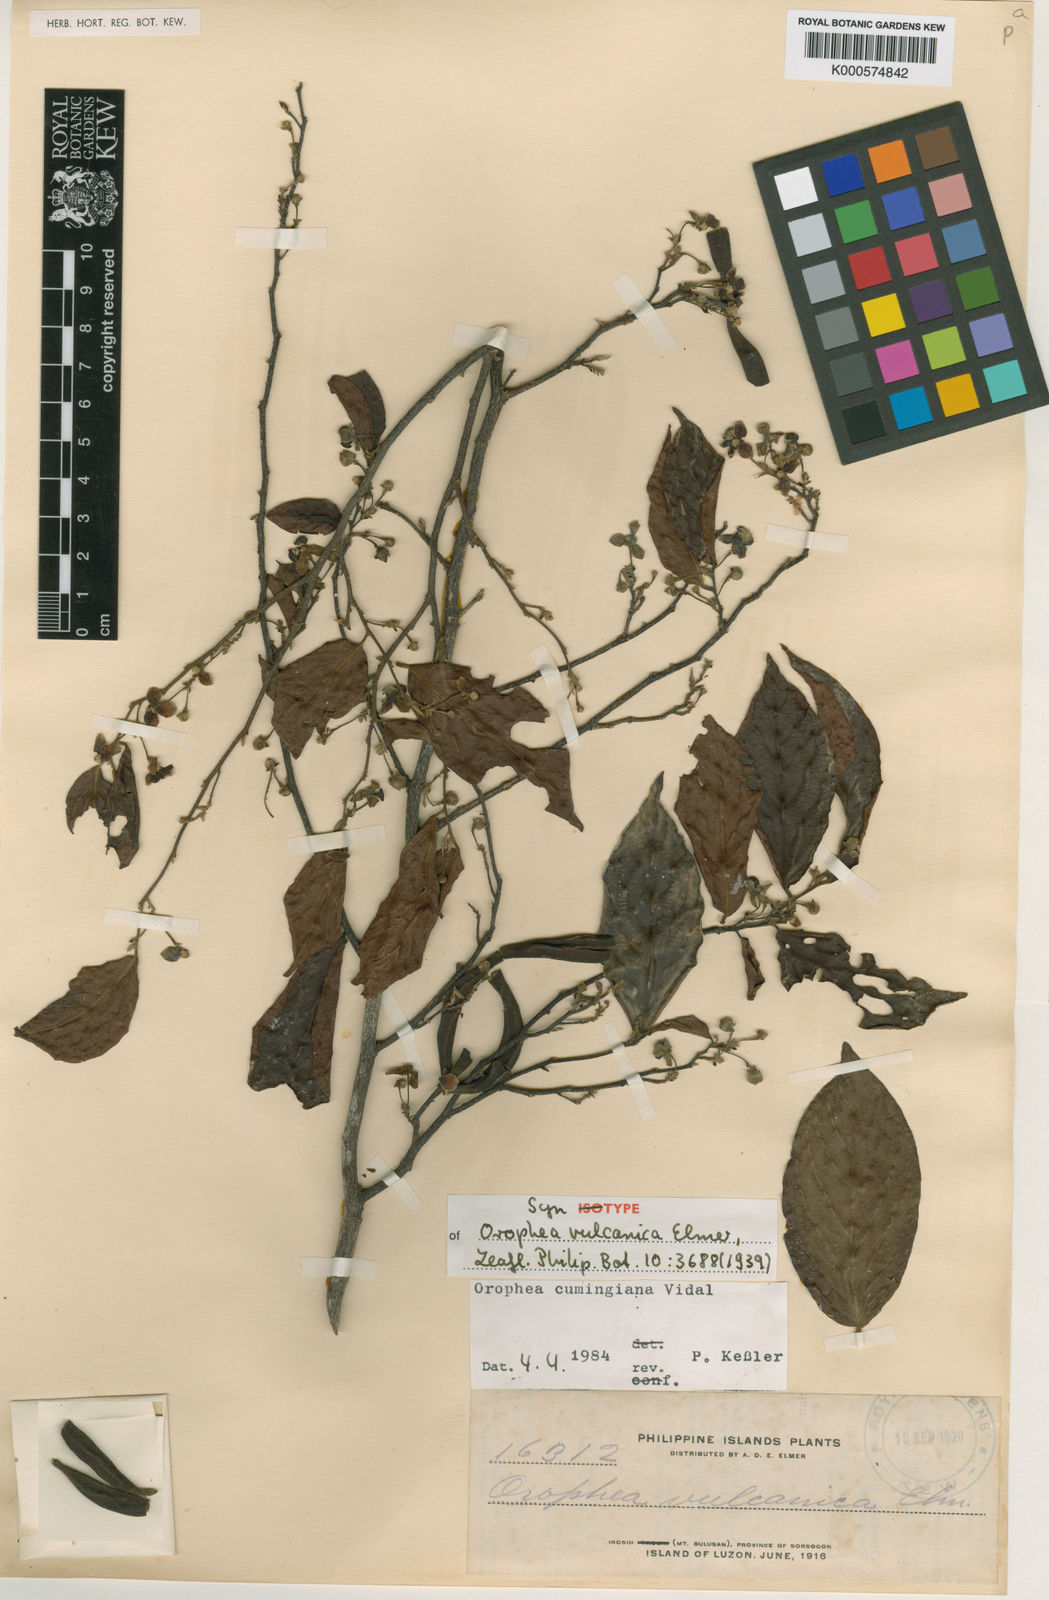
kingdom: Plantae
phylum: Tracheophyta
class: Magnoliopsida
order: Magnoliales
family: Annonaceae
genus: Orophea
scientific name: Orophea cumingiana
